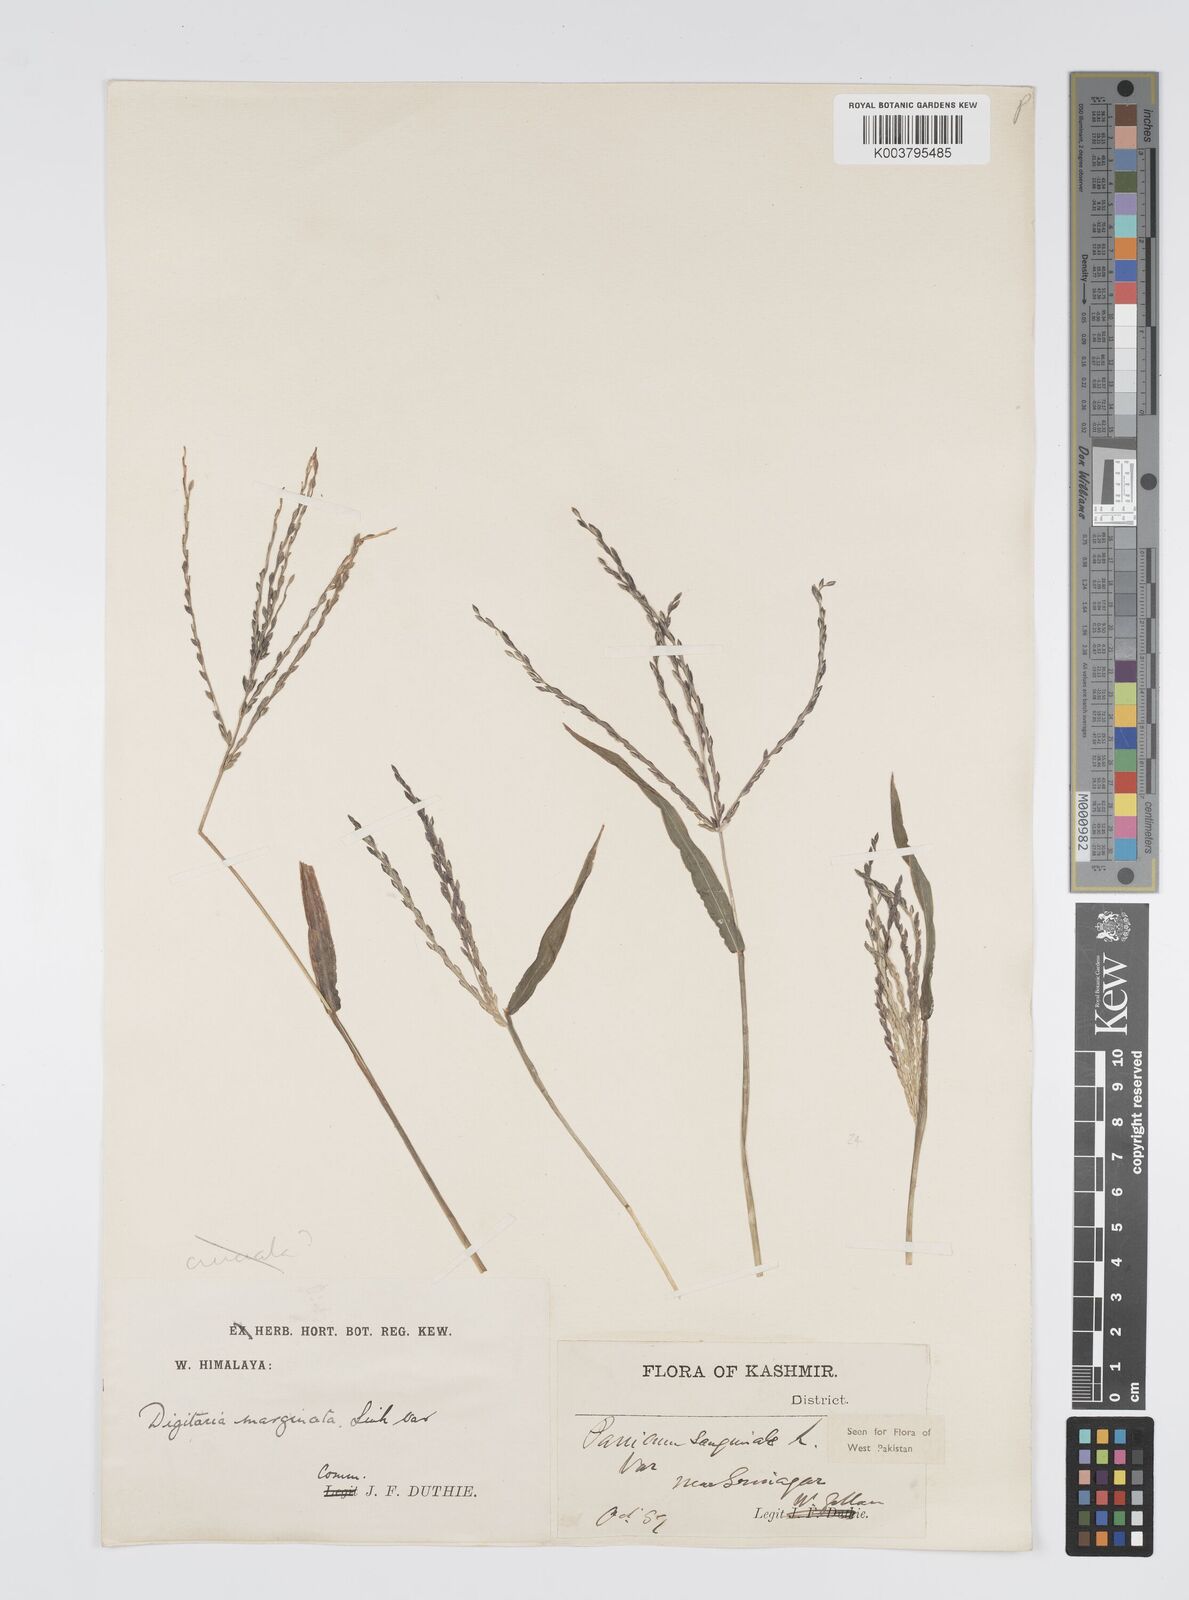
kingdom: Plantae
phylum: Tracheophyta
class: Liliopsida
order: Poales
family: Poaceae
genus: Digitaria
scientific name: Digitaria sanguinalis
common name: Hairy crabgrass
